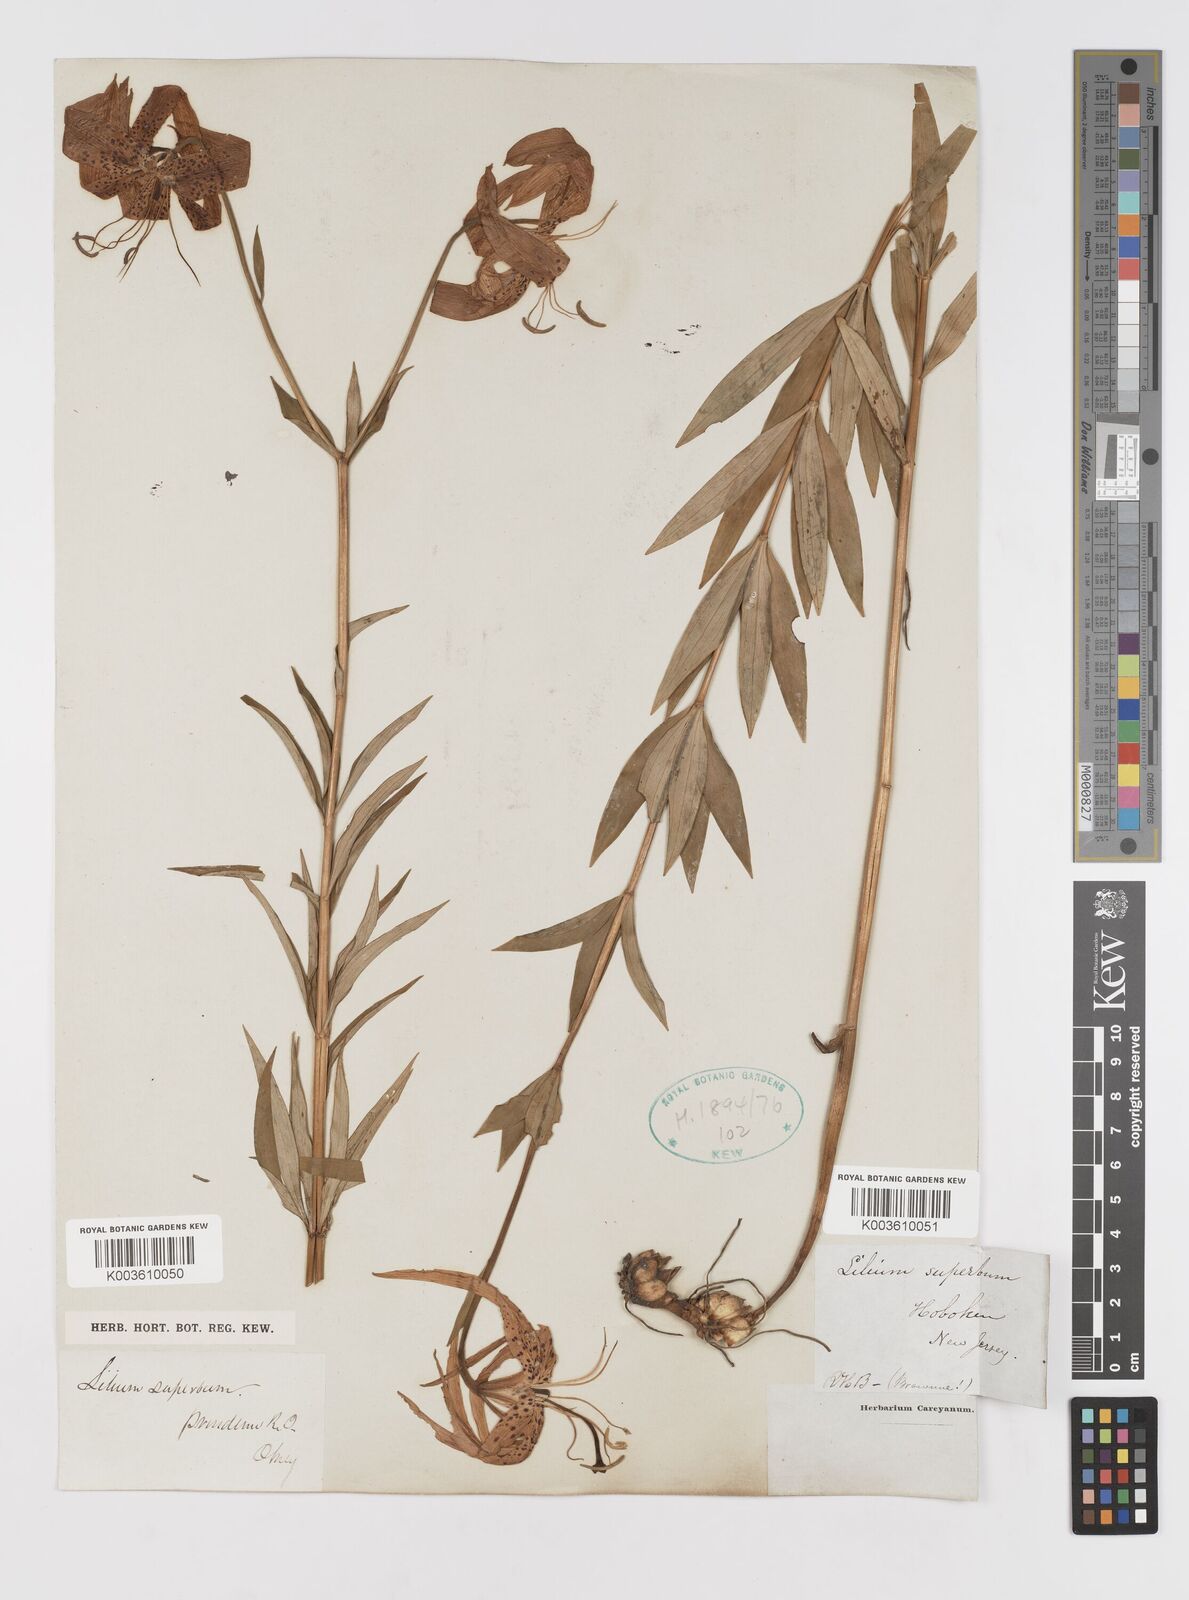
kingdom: Plantae
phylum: Tracheophyta
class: Liliopsida
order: Liliales
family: Liliaceae
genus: Lilium
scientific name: Lilium superbum
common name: American turk's-cap lily
